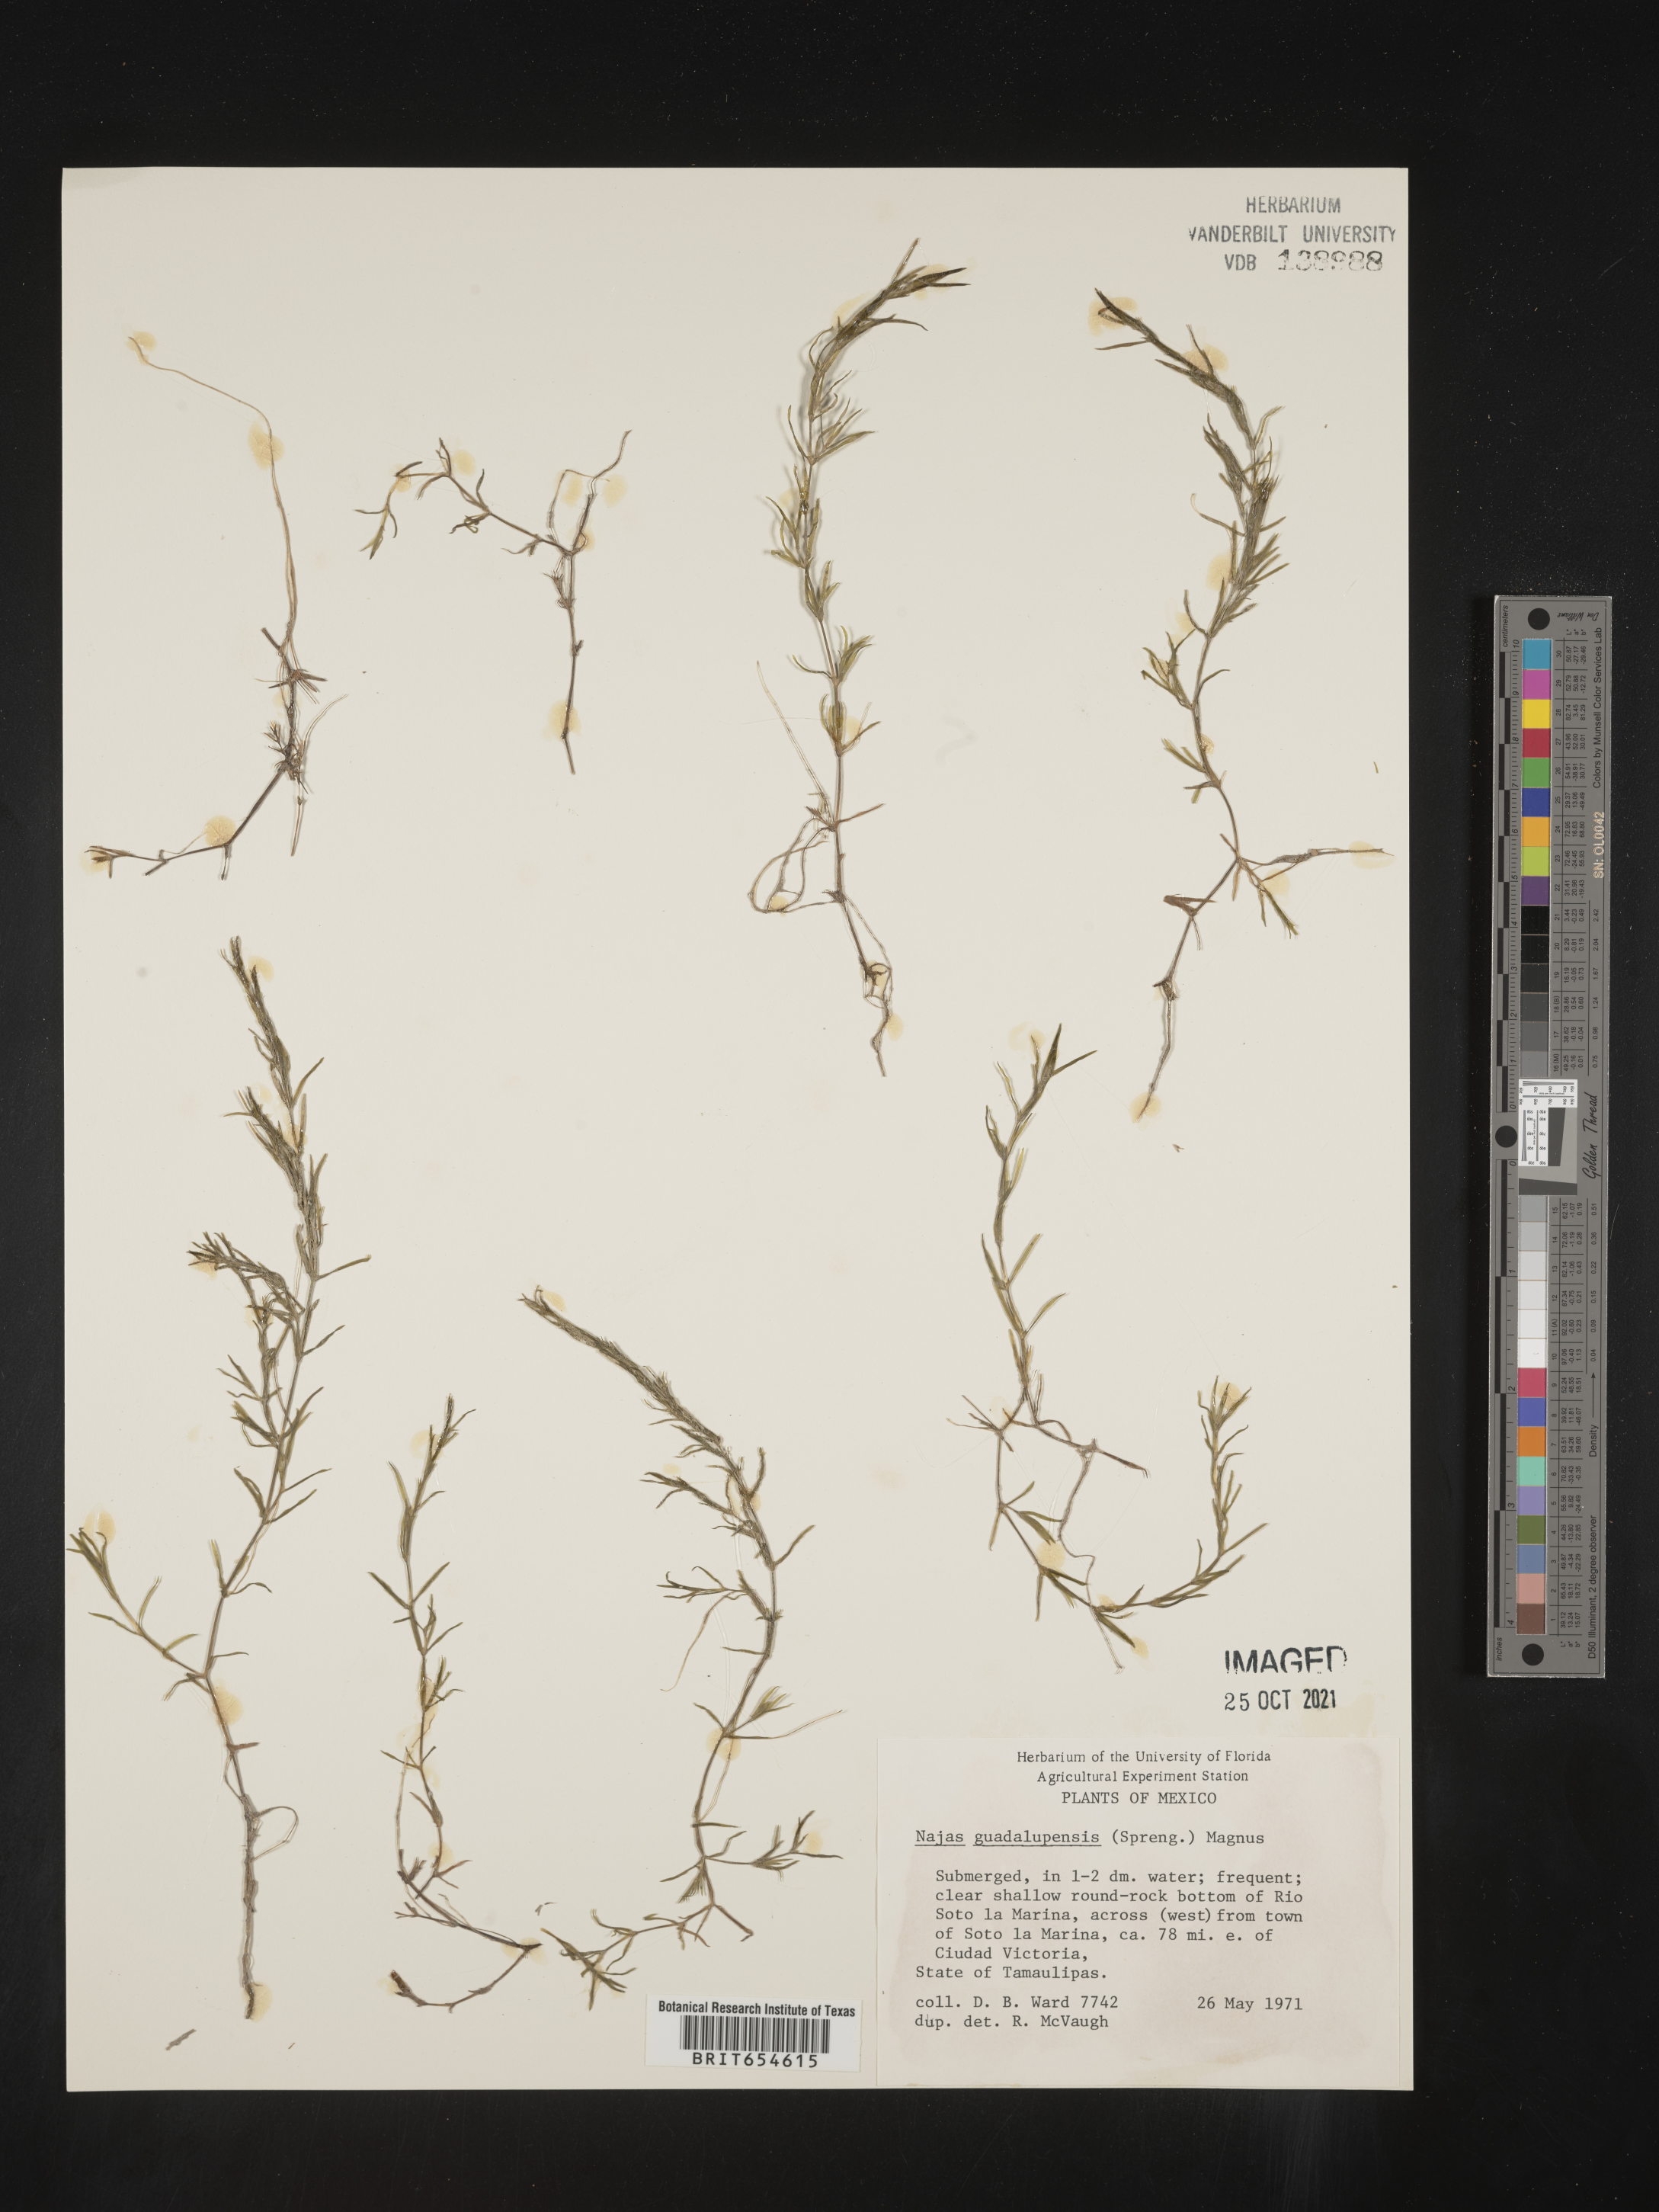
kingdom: Plantae
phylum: Tracheophyta
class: Liliopsida
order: Alismatales
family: Hydrocharitaceae
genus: Najas
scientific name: Najas
